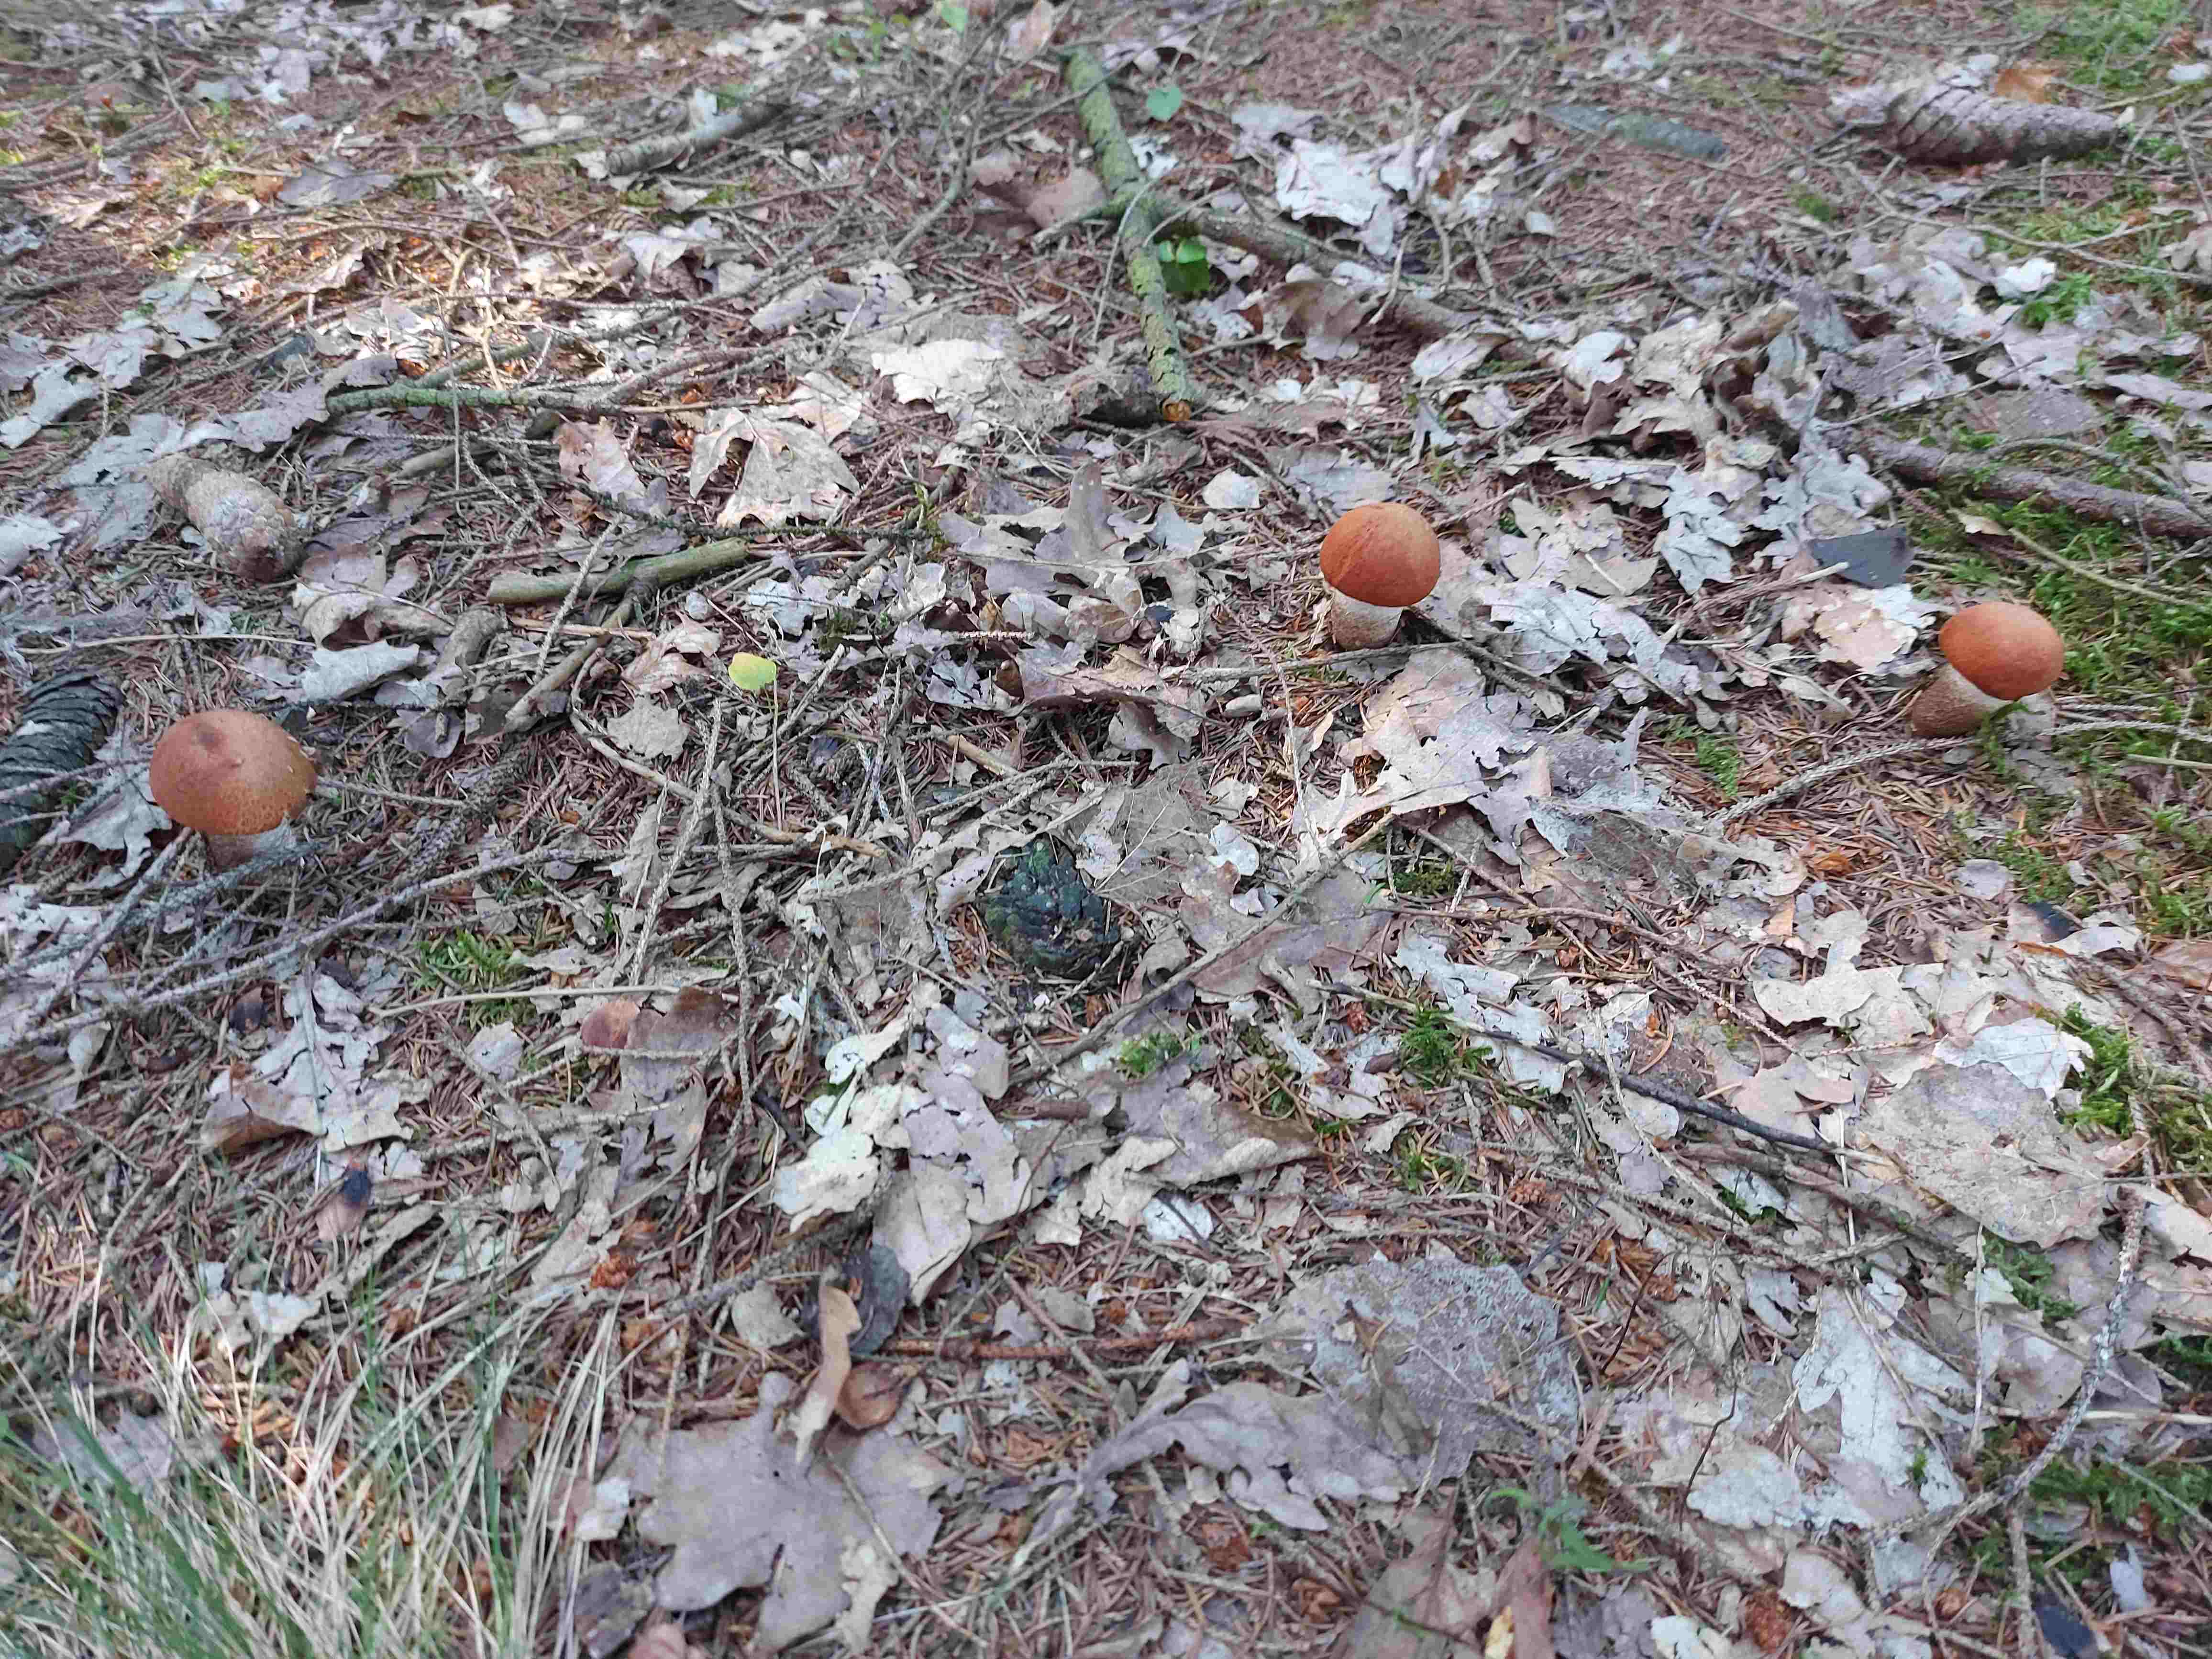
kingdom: Fungi
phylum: Basidiomycota
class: Agaricomycetes
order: Boletales
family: Boletaceae
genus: Leccinum
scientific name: Leccinum vulpinum
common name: fyrre-skælrørhat
